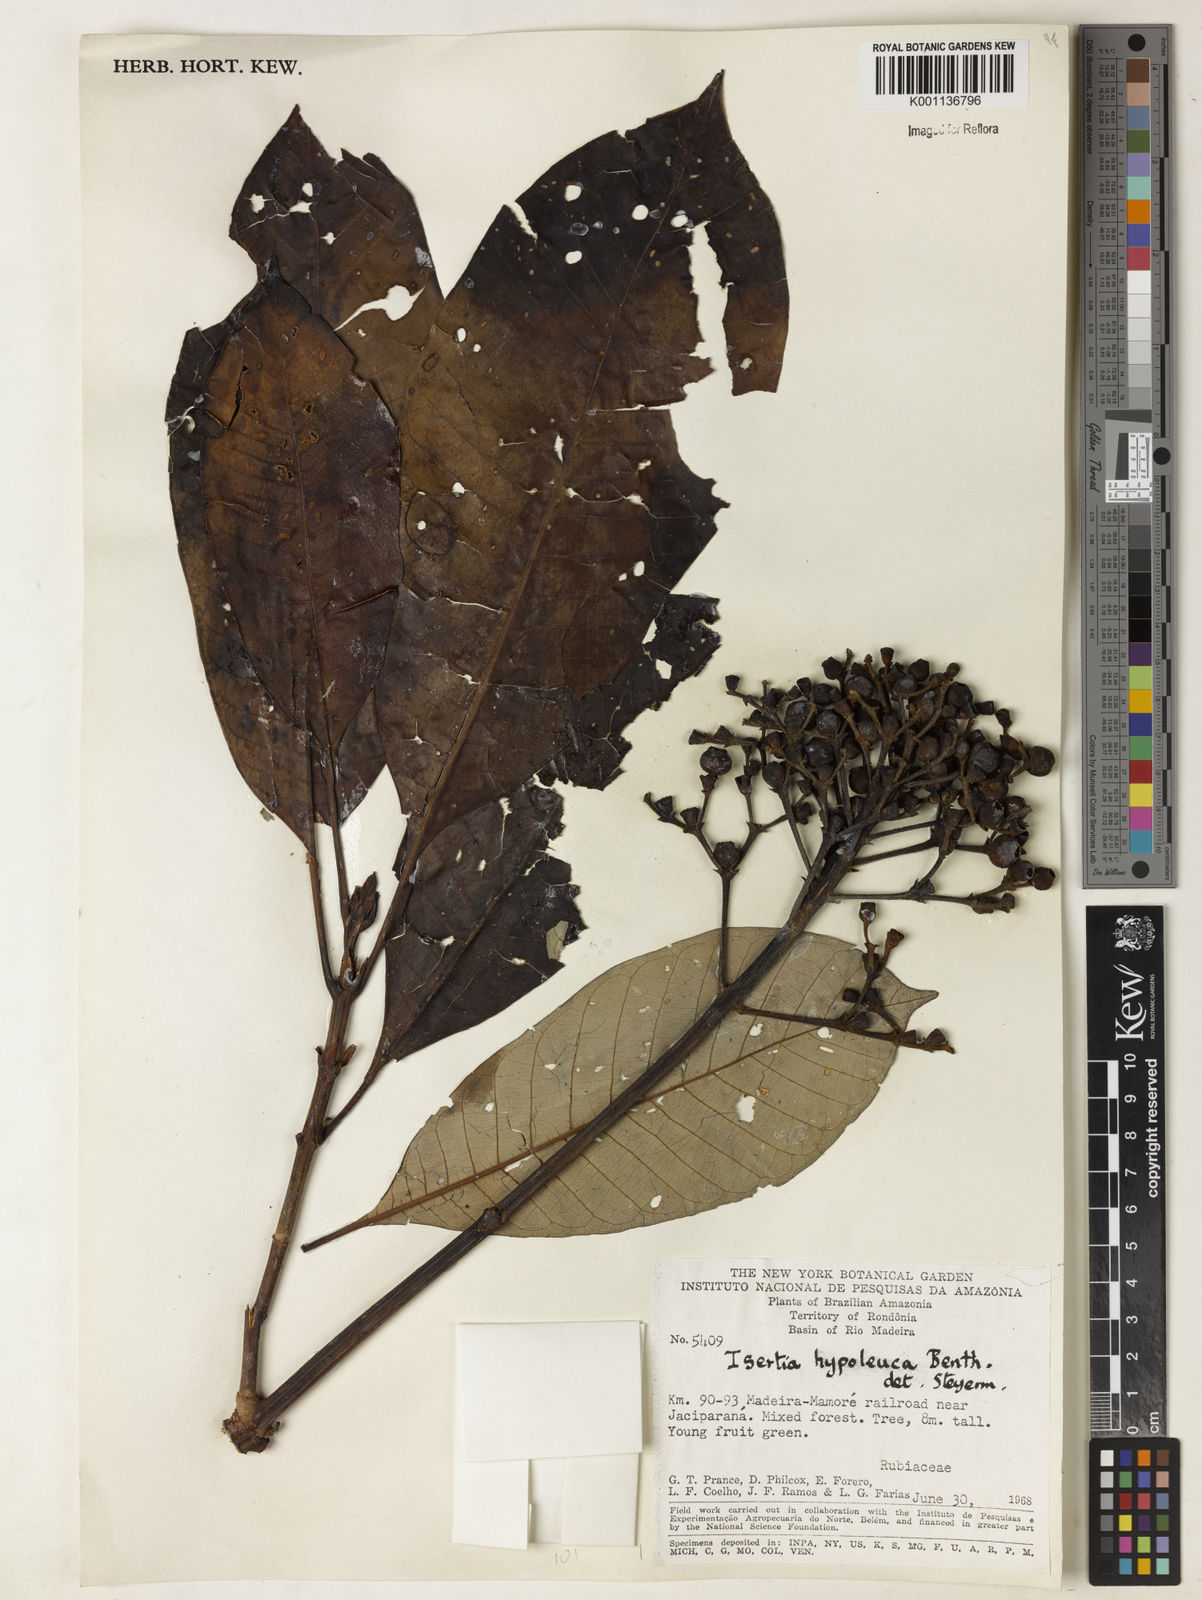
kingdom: Plantae
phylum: Tracheophyta
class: Magnoliopsida
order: Gentianales
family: Rubiaceae
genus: Isertia
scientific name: Isertia hypoleuca
